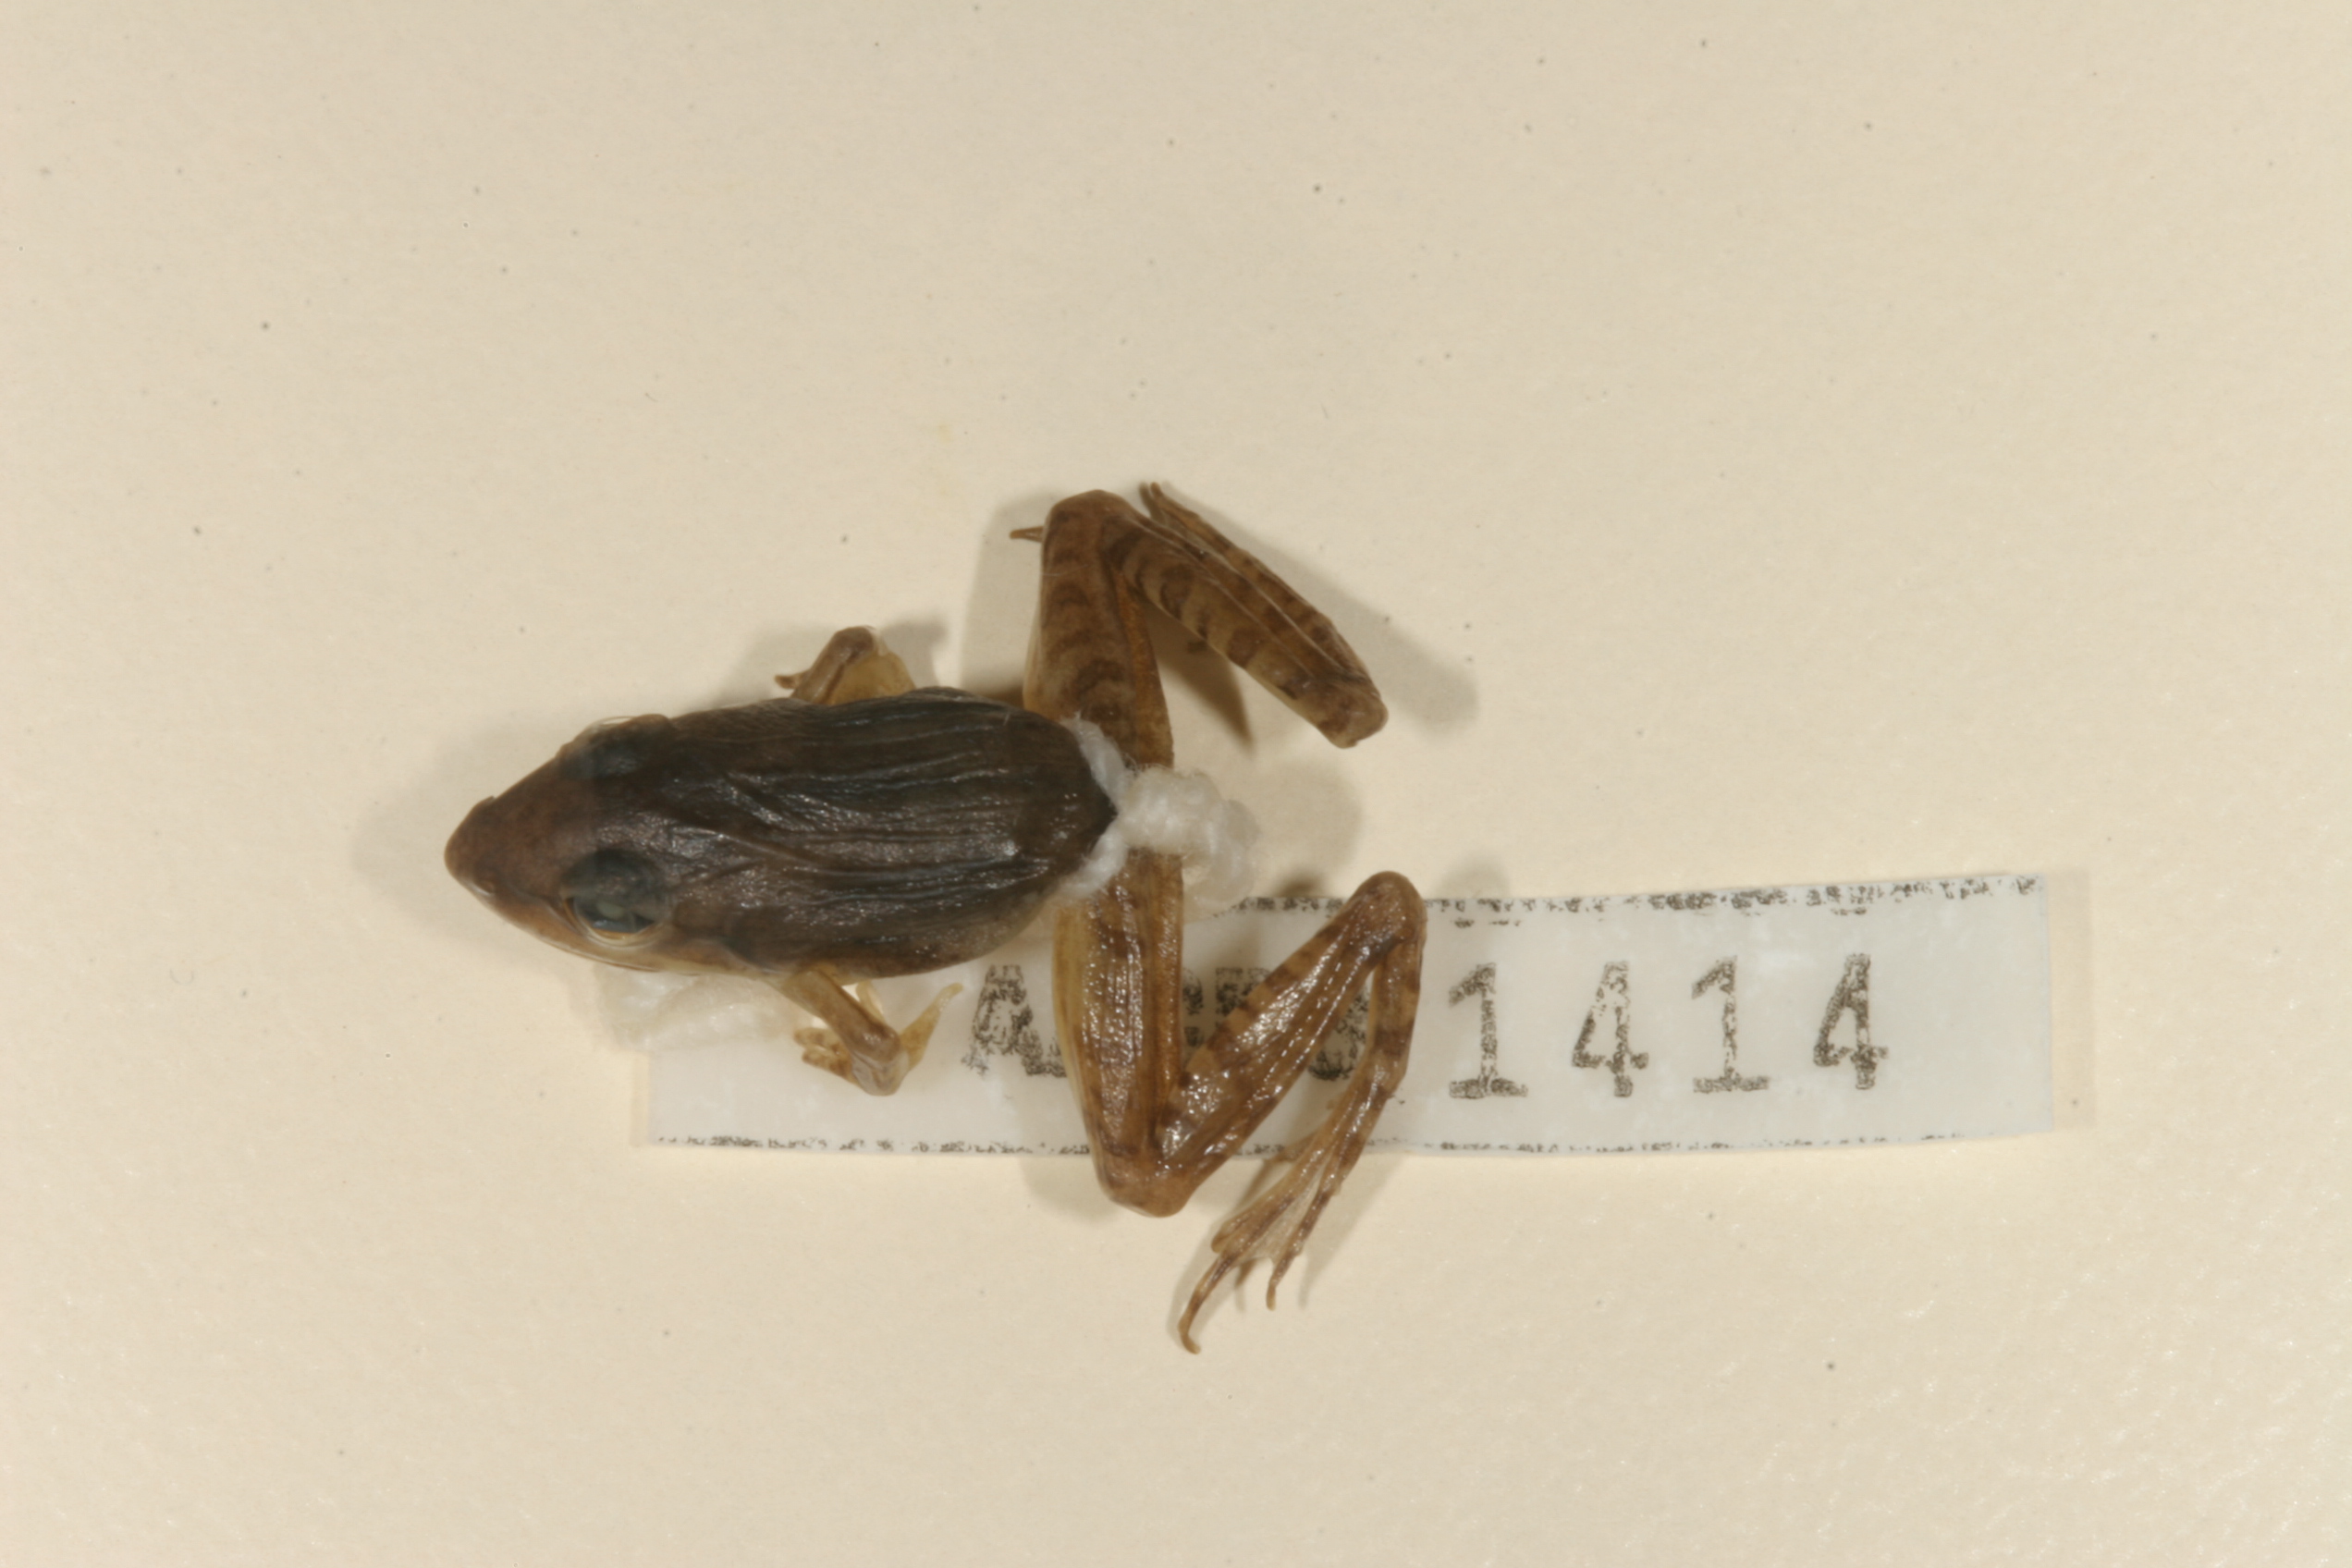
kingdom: Animalia
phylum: Chordata
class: Amphibia
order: Anura
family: Ptychadenidae
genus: Ptychadena
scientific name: Ptychadena anchietae
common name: Anchieta's ridged frog
